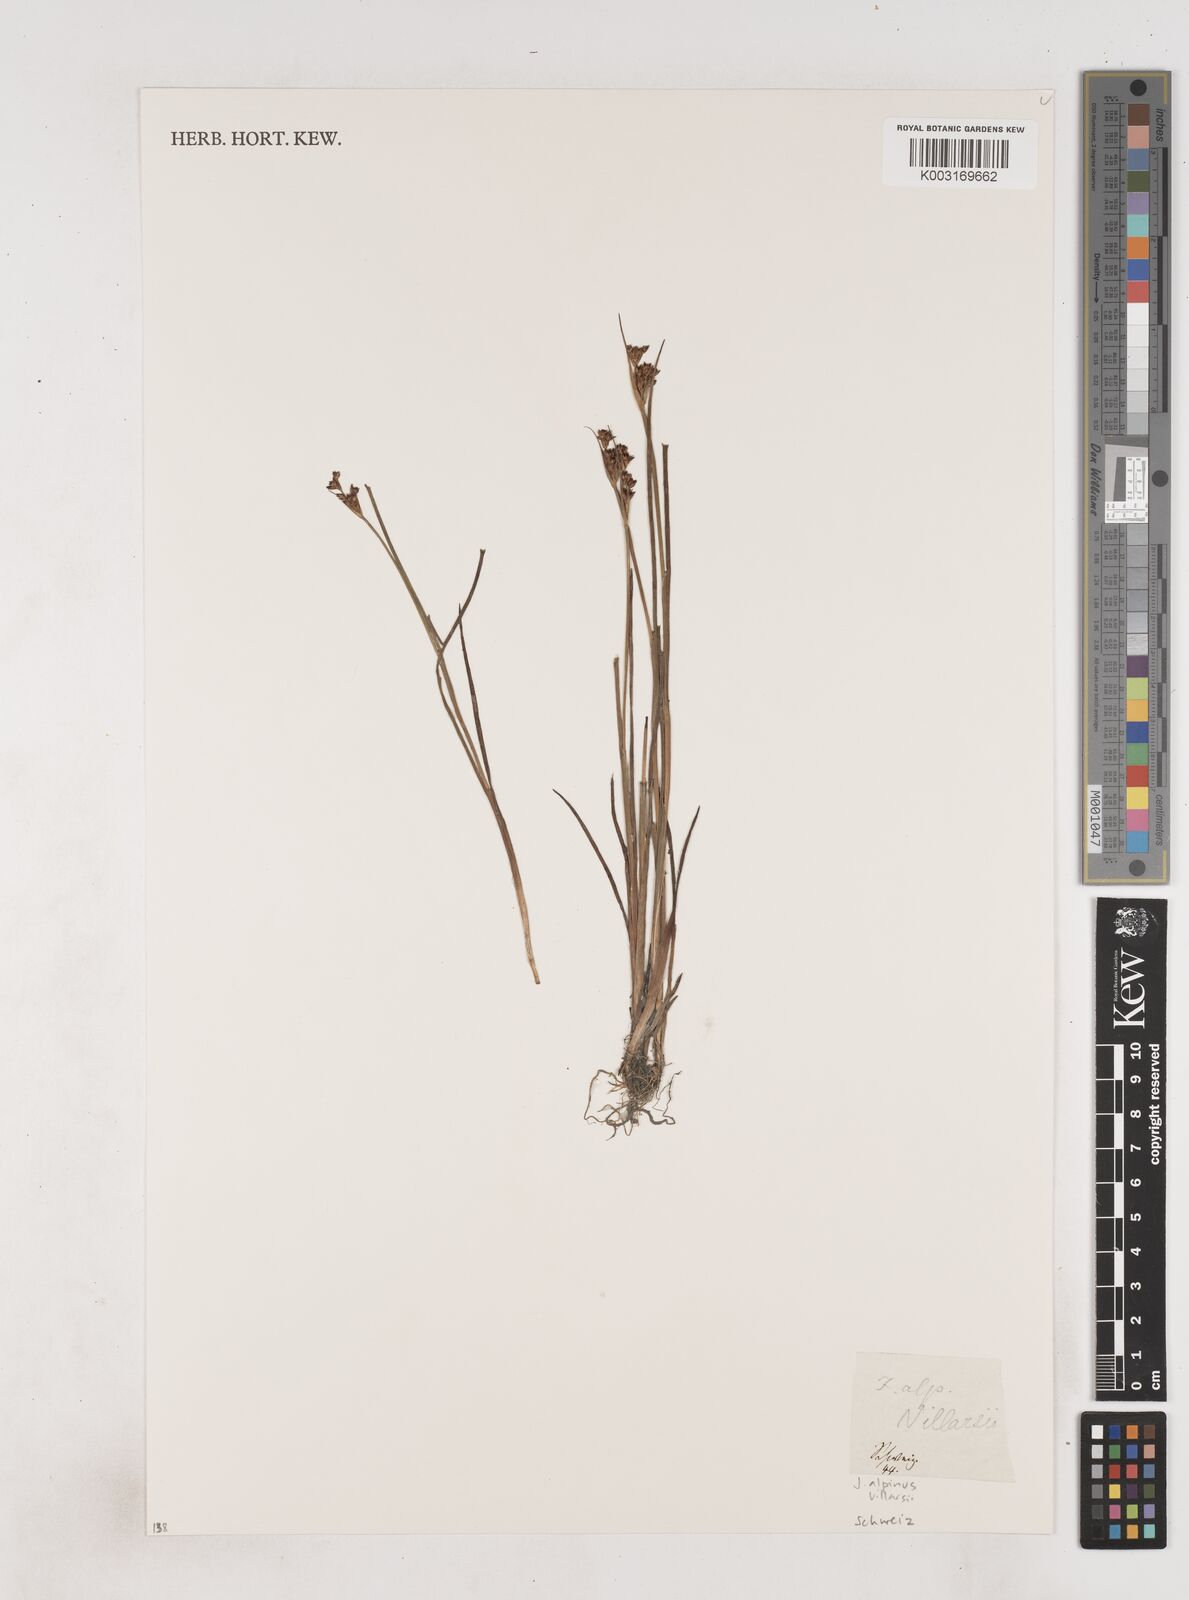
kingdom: Plantae
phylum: Tracheophyta
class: Liliopsida
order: Poales
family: Juncaceae
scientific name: Juncaceae
